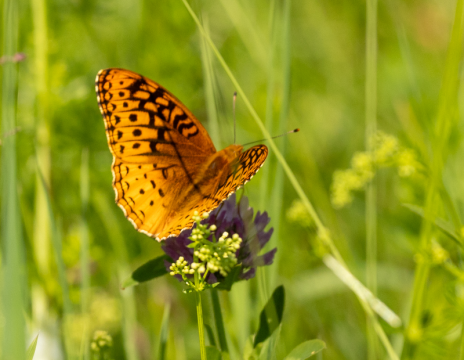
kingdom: Animalia
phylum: Arthropoda
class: Insecta
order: Lepidoptera
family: Nymphalidae
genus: Speyeria
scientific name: Speyeria cybele
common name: Great Spangled Fritillary
